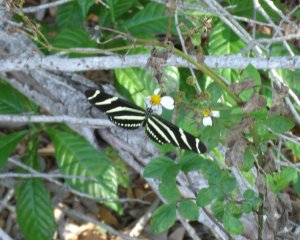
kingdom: Animalia
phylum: Arthropoda
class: Insecta
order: Lepidoptera
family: Nymphalidae
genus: Heliconius
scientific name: Heliconius charithonia
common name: Zebra Longwing
